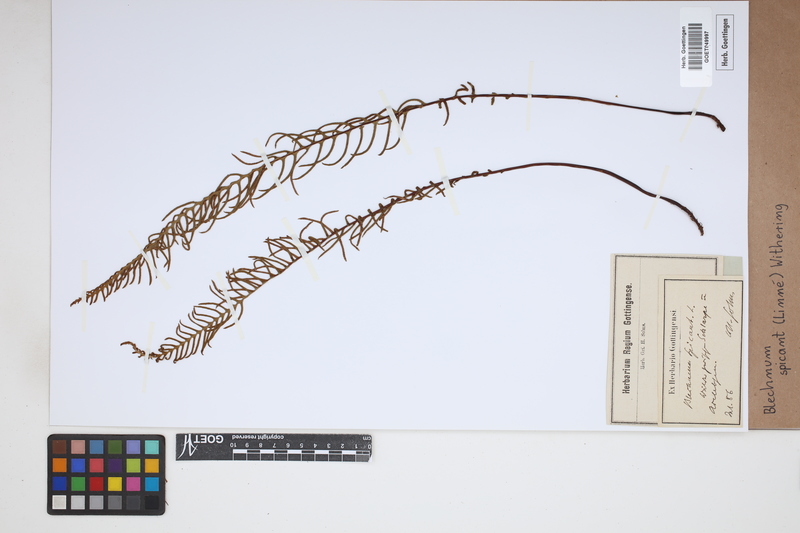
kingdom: Plantae
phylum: Tracheophyta
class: Polypodiopsida
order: Polypodiales
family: Blechnaceae
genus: Struthiopteris
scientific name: Struthiopteris spicant
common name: Deer fern
